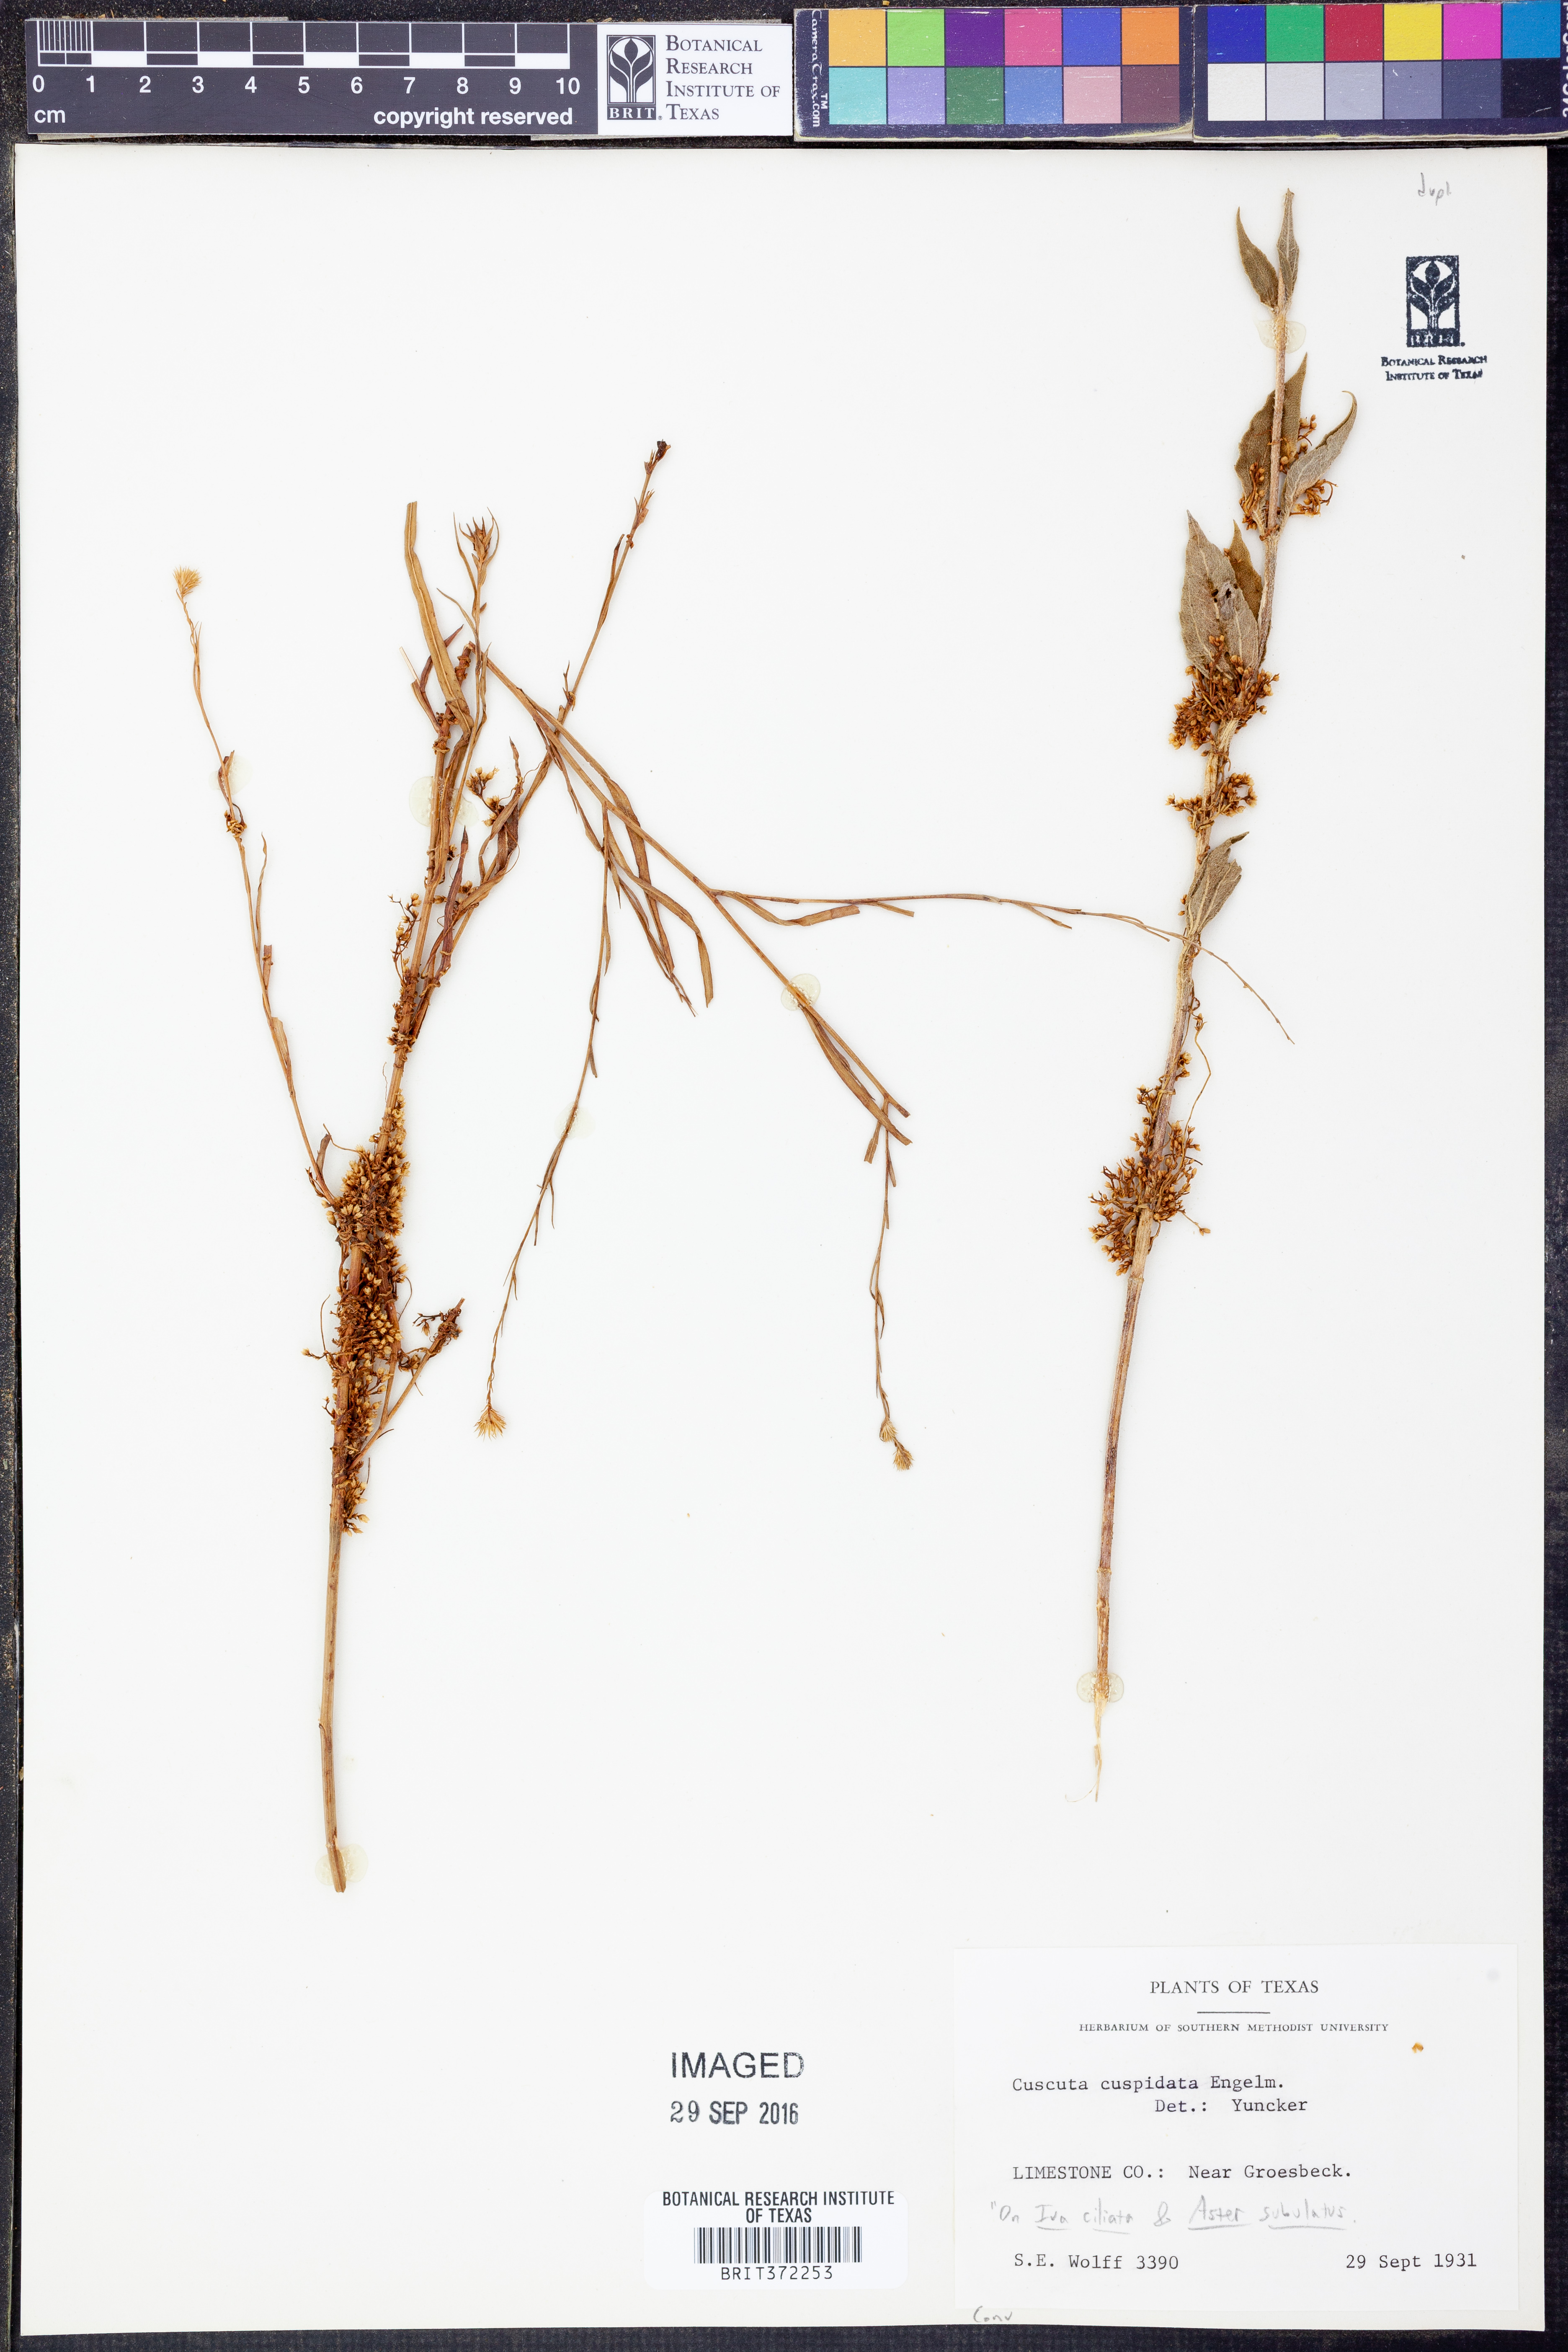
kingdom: Plantae
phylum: Tracheophyta
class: Magnoliopsida
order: Solanales
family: Convolvulaceae
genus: Cuscuta
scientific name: Cuscuta cuspidata
